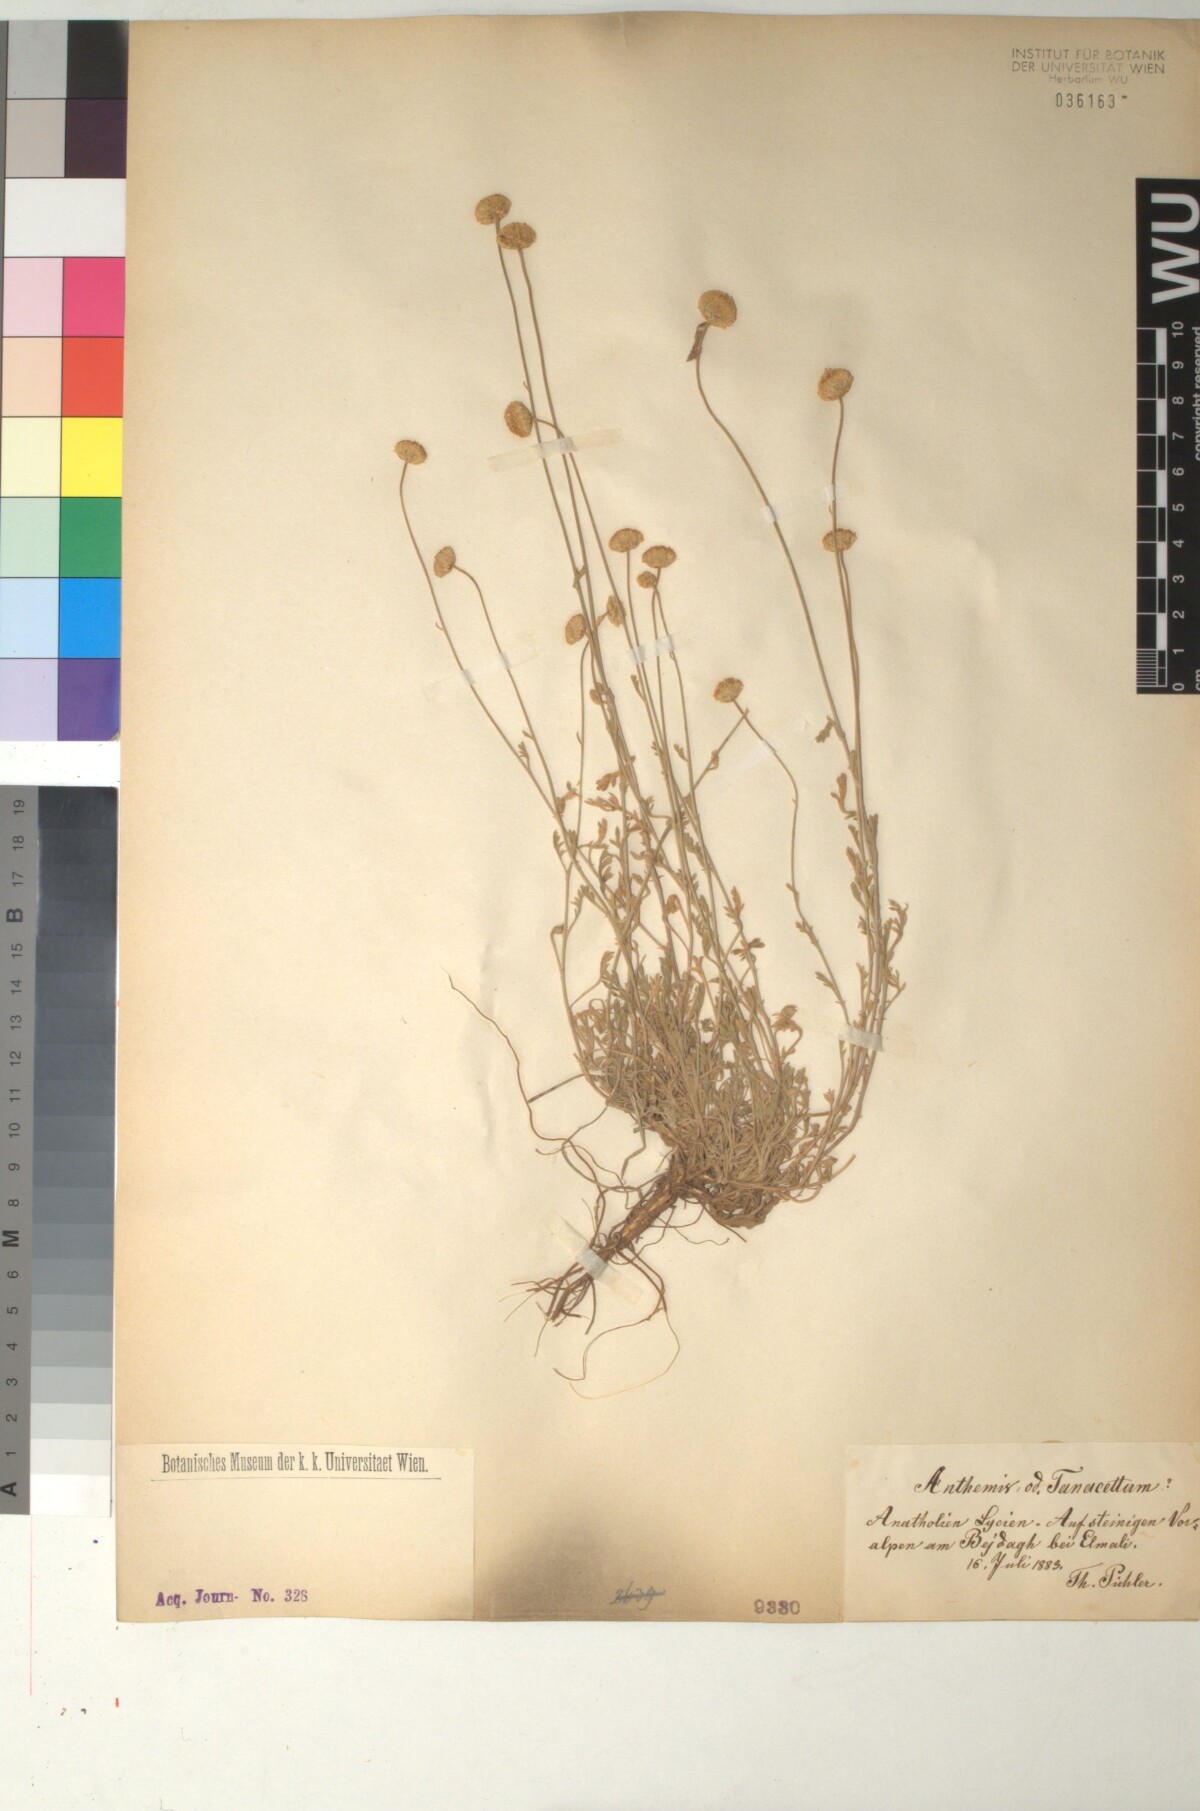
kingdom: Plantae
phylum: Tracheophyta
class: Magnoliopsida
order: Asterales
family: Asteraceae
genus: Anthemis
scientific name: Anthemis cretica
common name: Mountain dog-daisy
